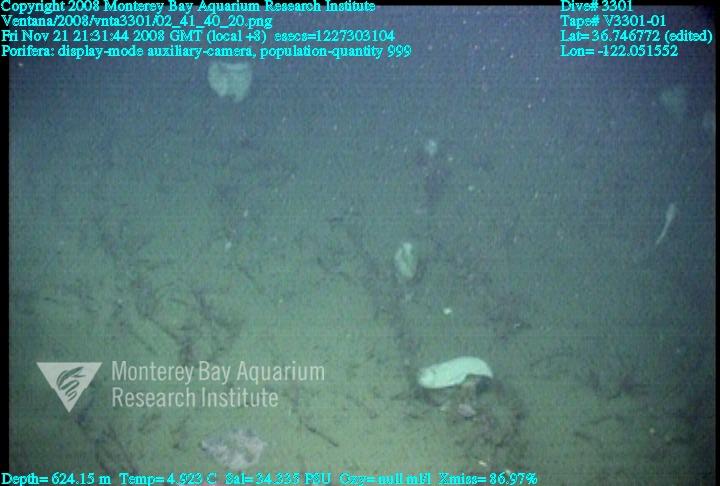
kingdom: Animalia
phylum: Porifera
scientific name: Porifera
